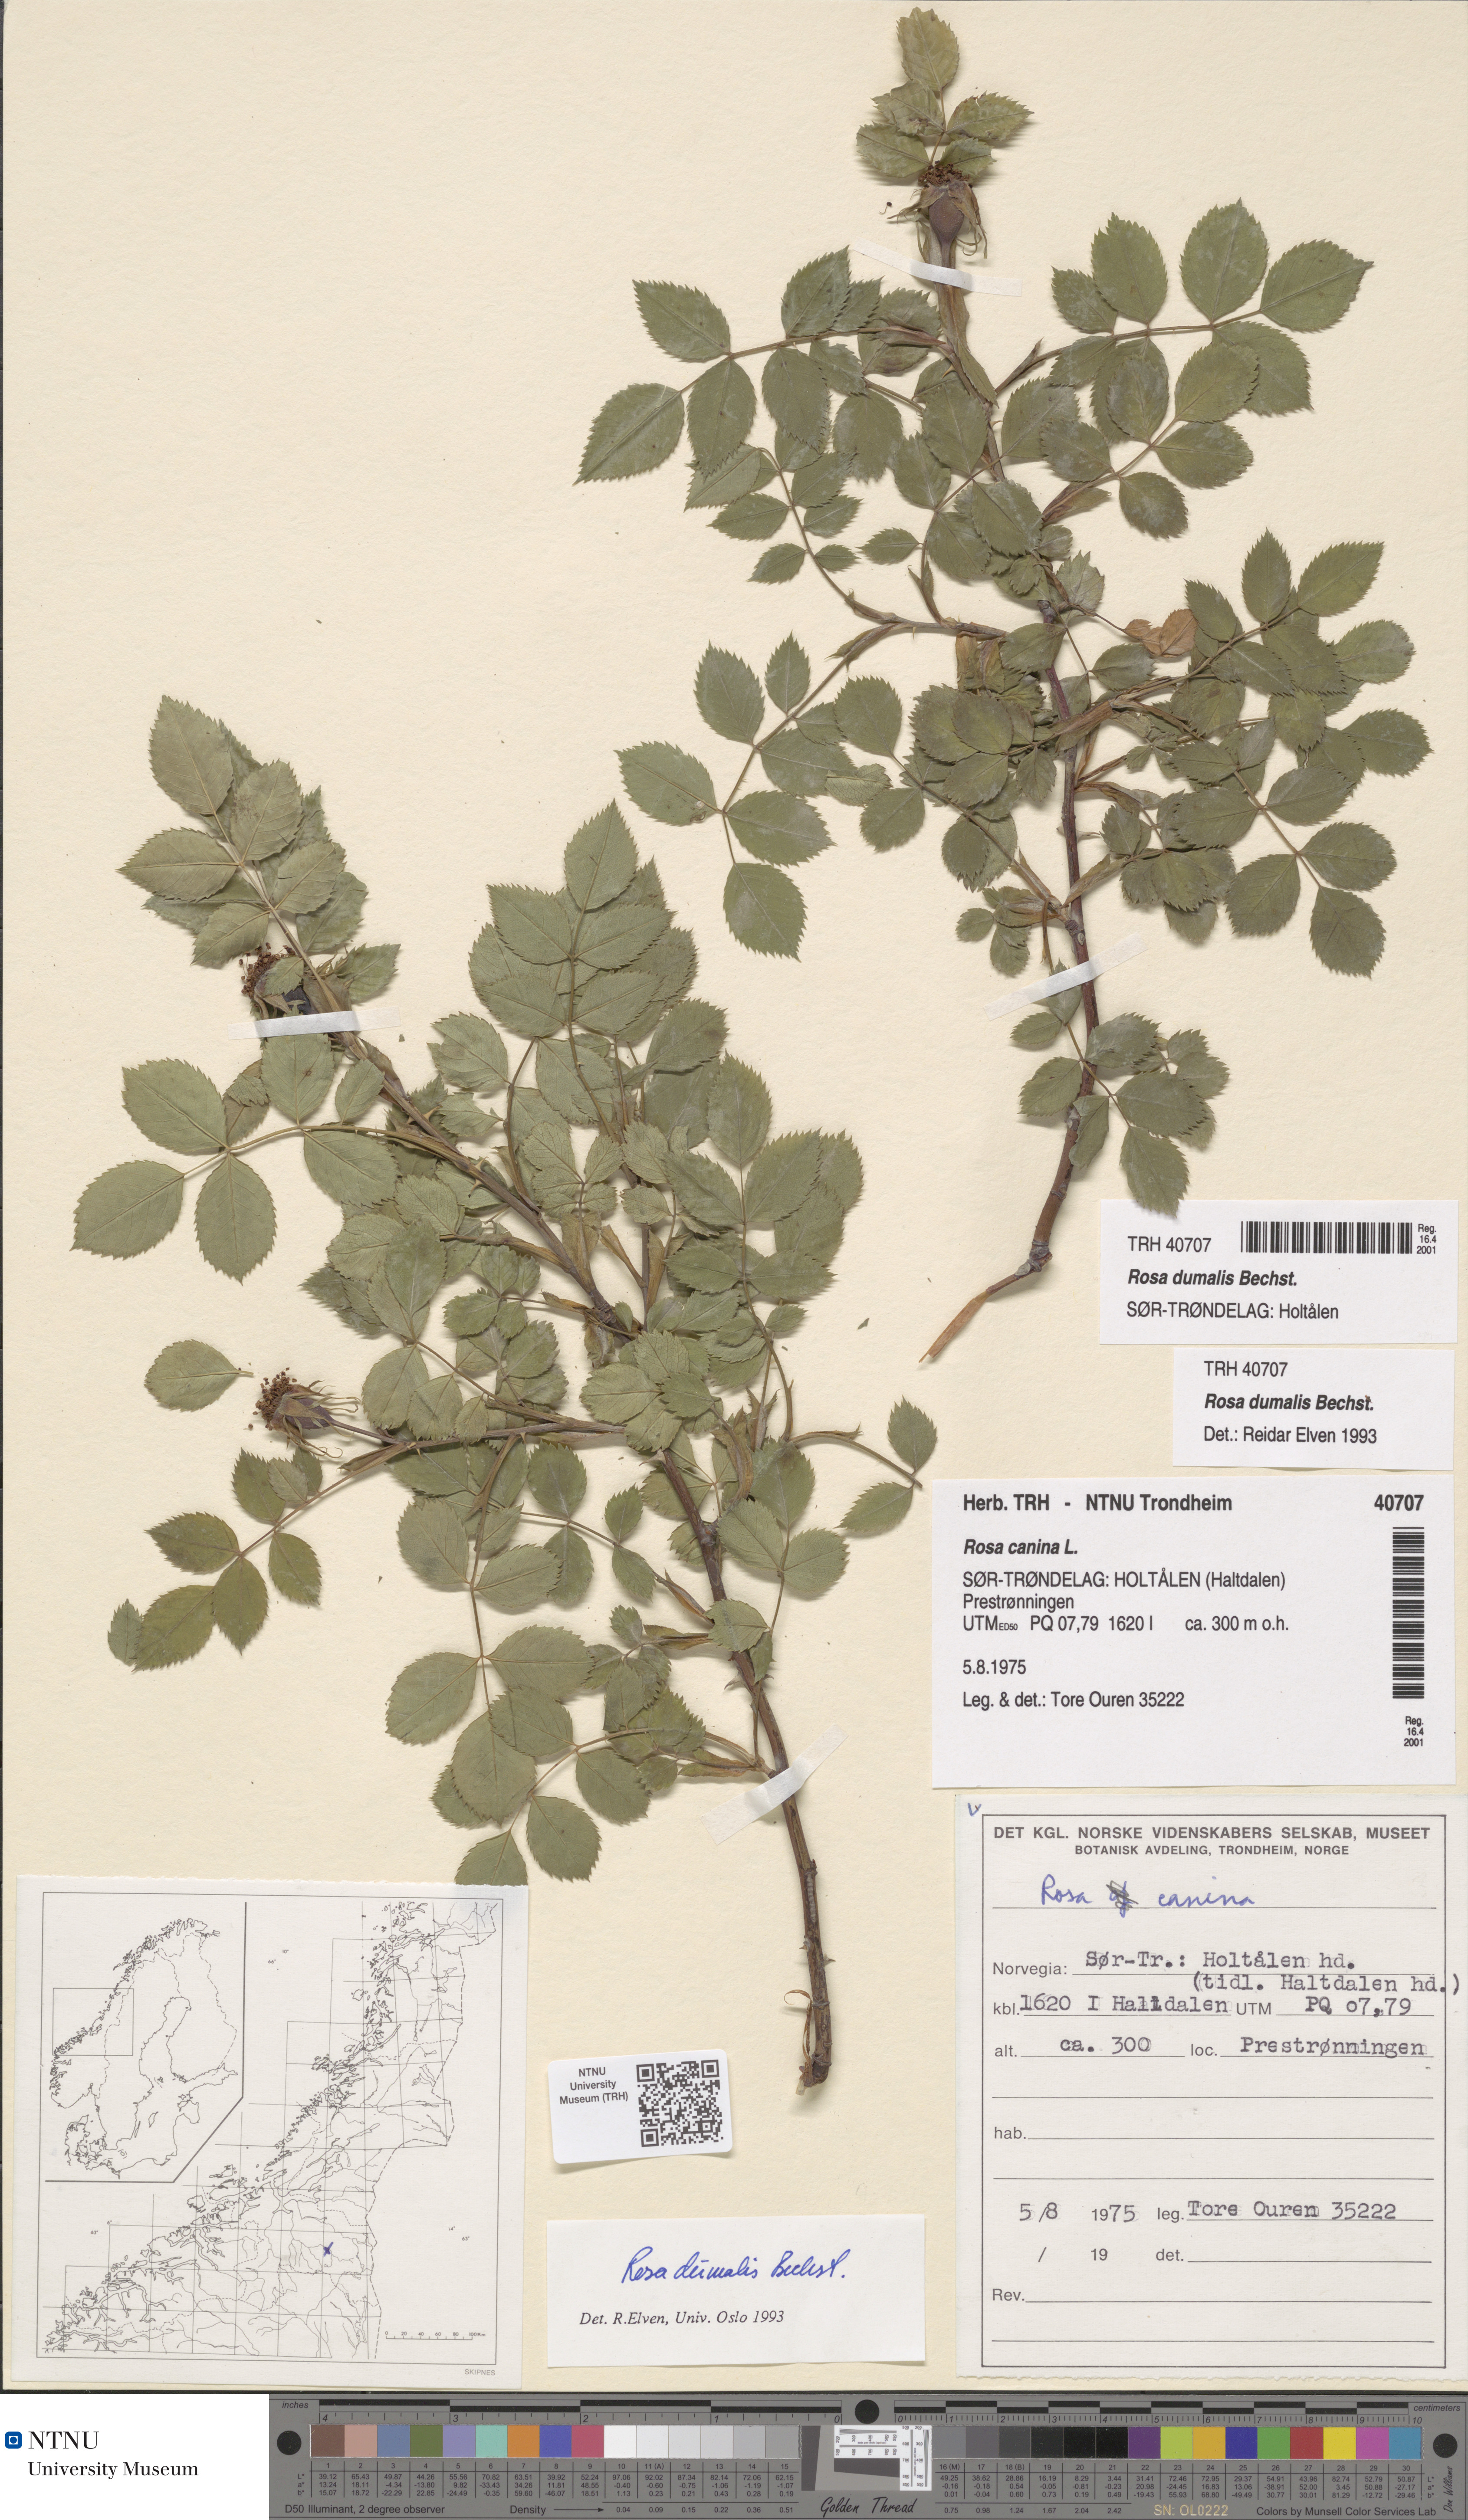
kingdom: Plantae
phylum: Tracheophyta
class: Magnoliopsida
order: Rosales
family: Rosaceae
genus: Rosa
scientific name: Rosa dumalis
